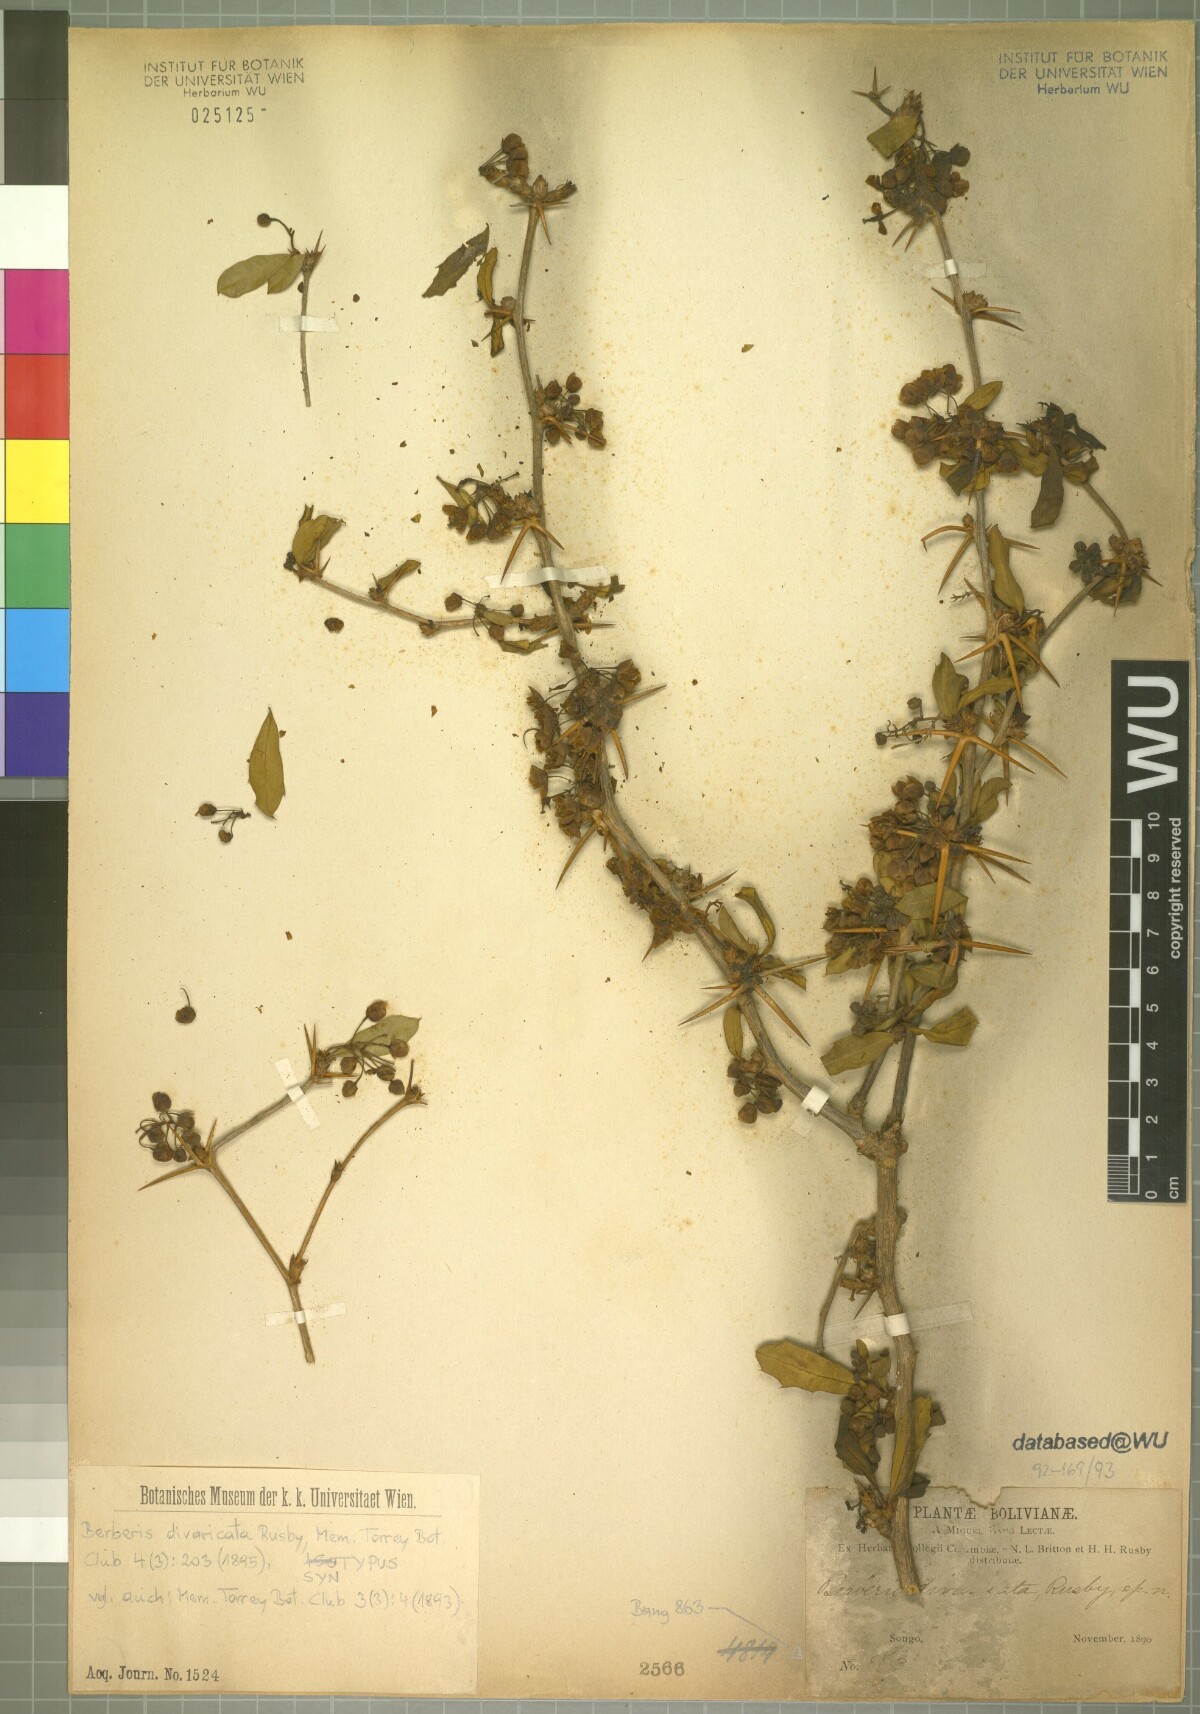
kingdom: Plantae
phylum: Tracheophyta
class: Magnoliopsida
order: Ranunculales
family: Berberidaceae
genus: Berberis
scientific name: Berberis commutata
